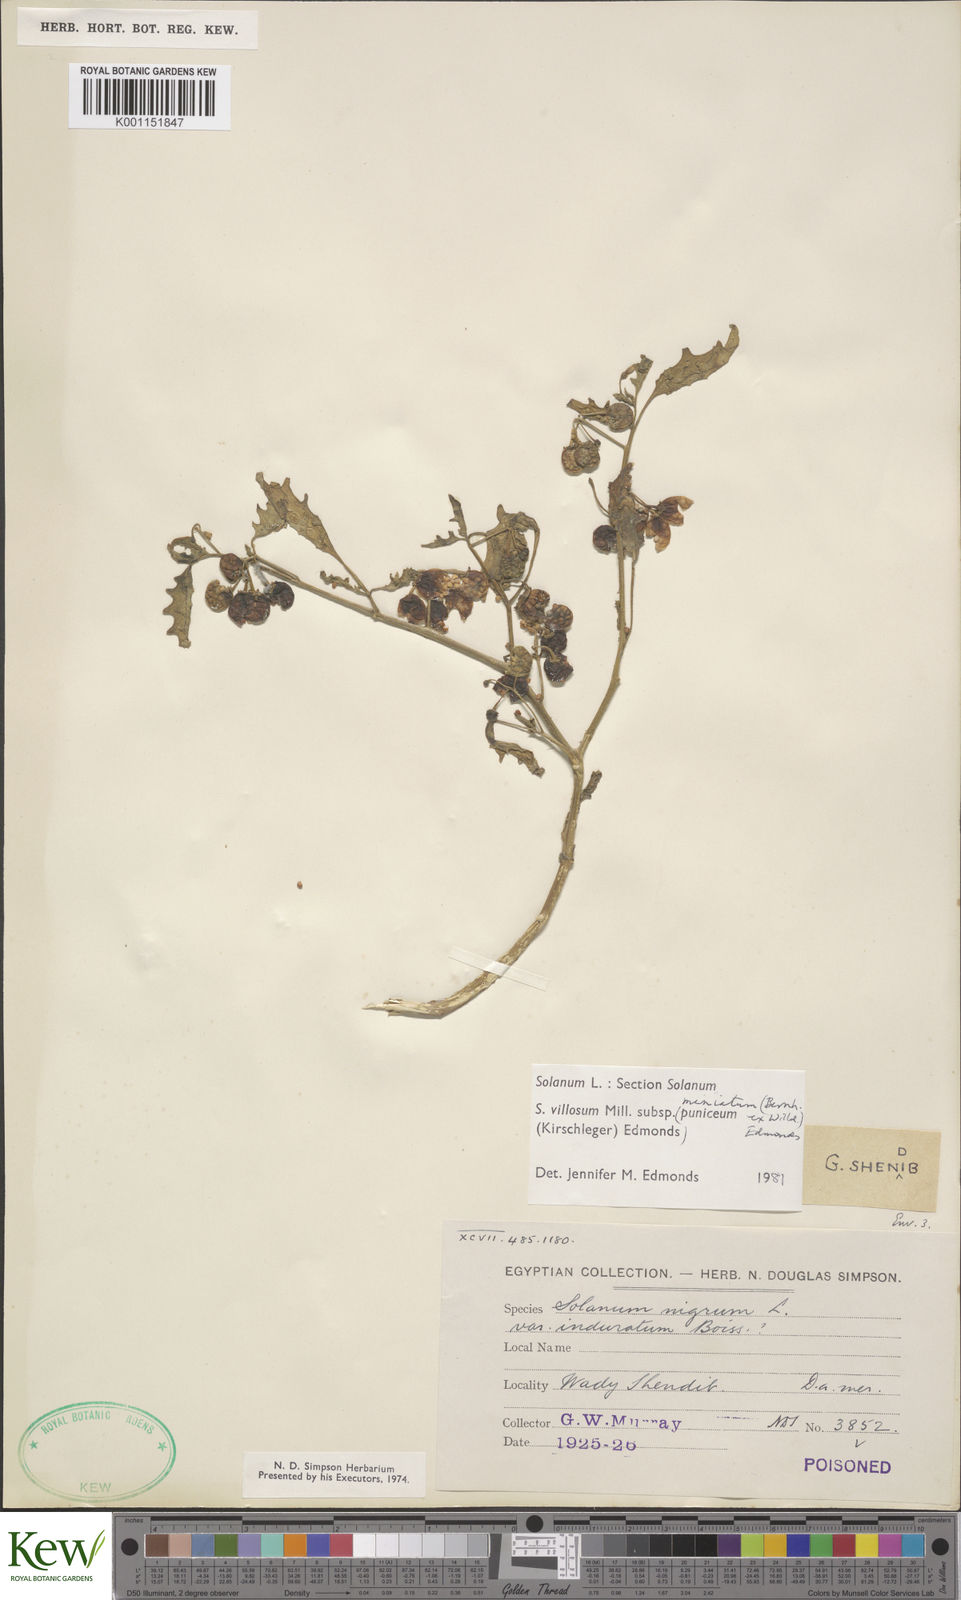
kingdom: Plantae
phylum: Tracheophyta
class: Magnoliopsida
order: Solanales
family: Solanaceae
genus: Solanum
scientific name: Solanum alatum
